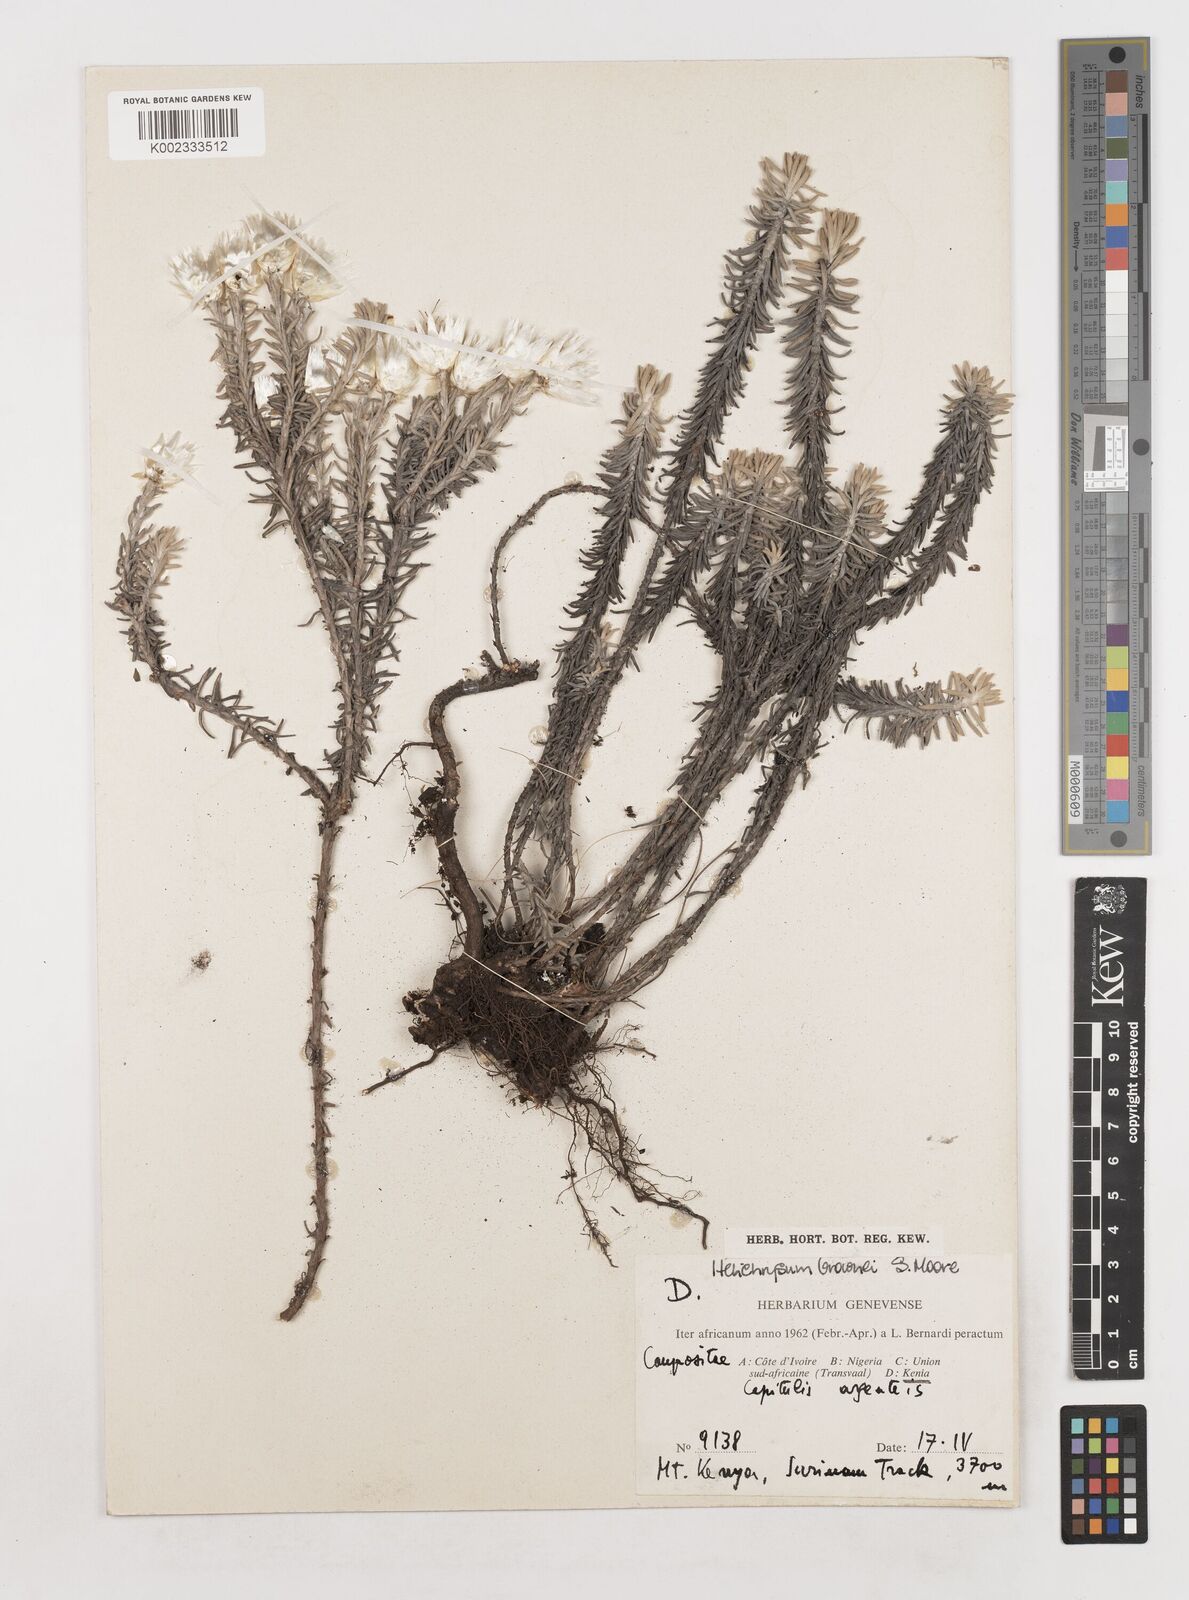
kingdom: Plantae
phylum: Tracheophyta
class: Magnoliopsida
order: Asterales
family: Asteraceae
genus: Helichrysum
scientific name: Helichrysum brownei
